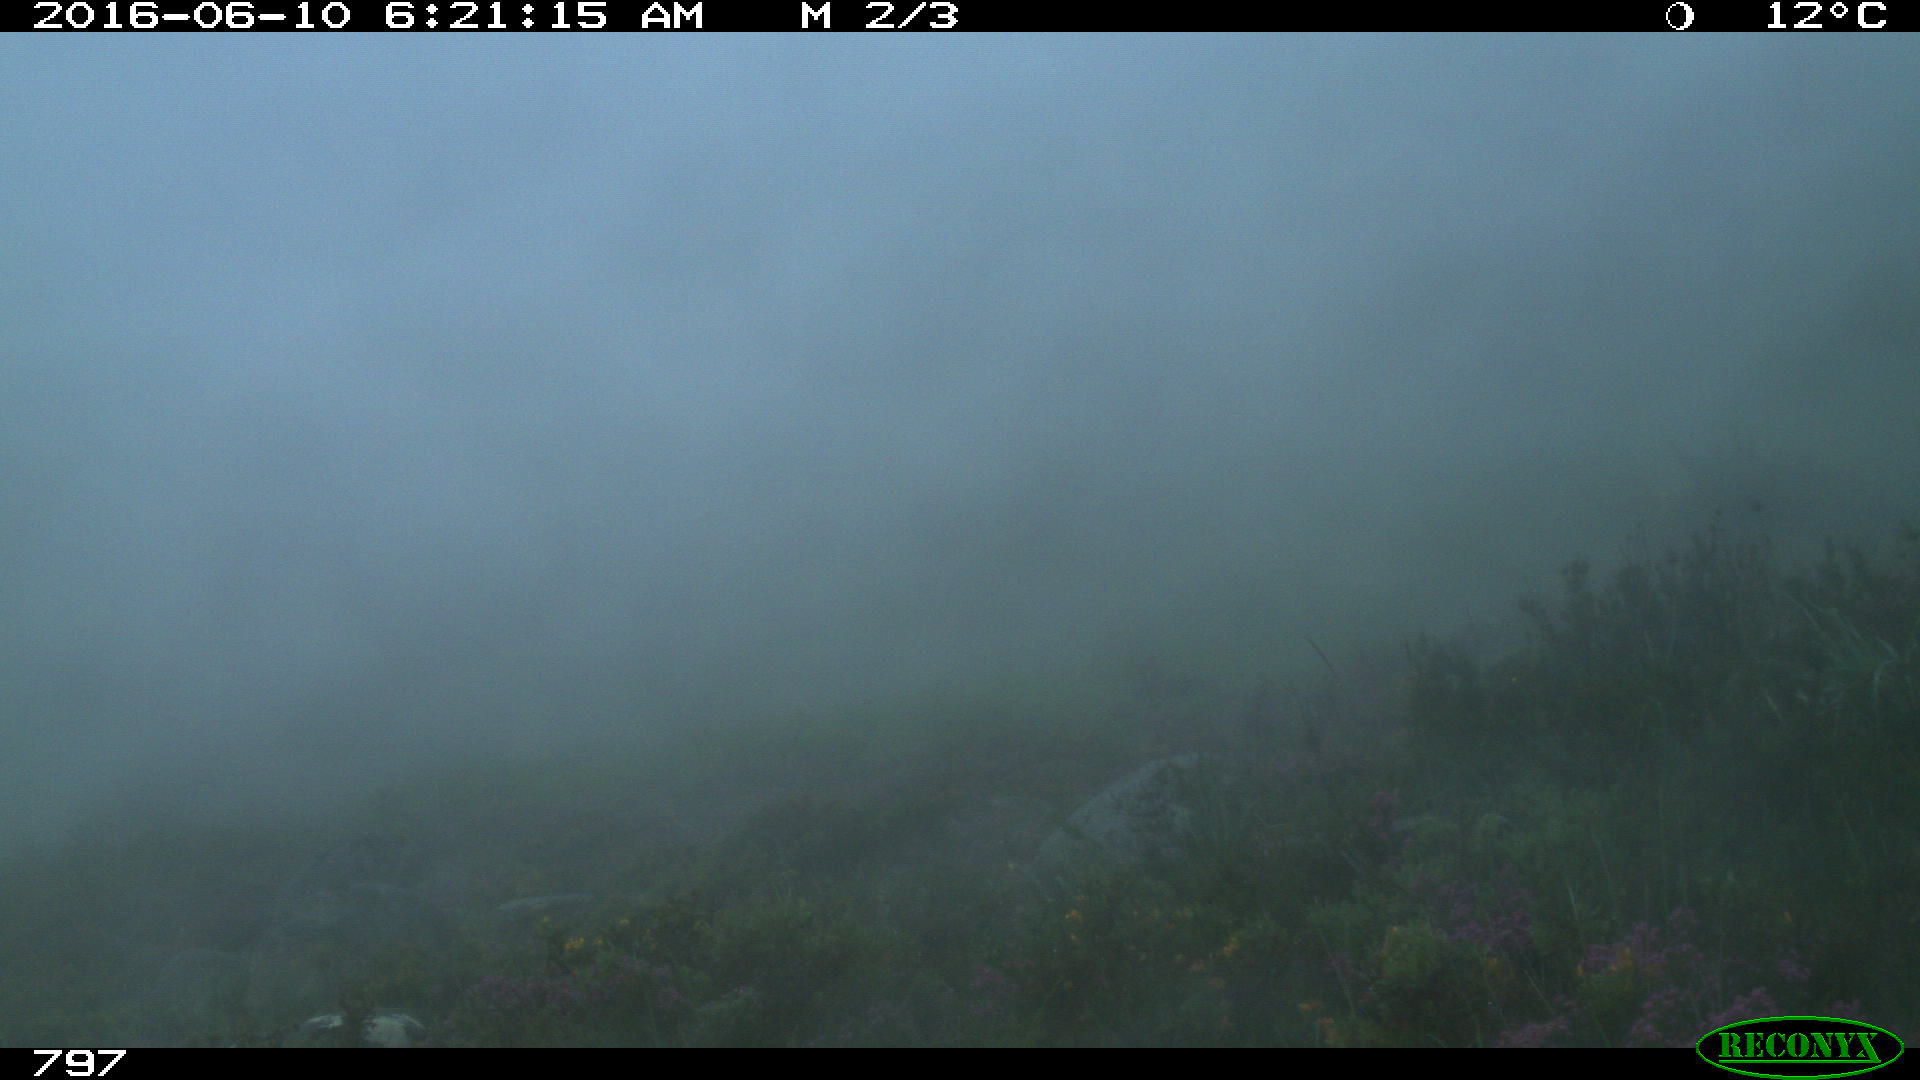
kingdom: Animalia
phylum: Chordata
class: Mammalia
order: Artiodactyla
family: Bovidae
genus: Bos
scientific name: Bos taurus
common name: Domesticated cattle
